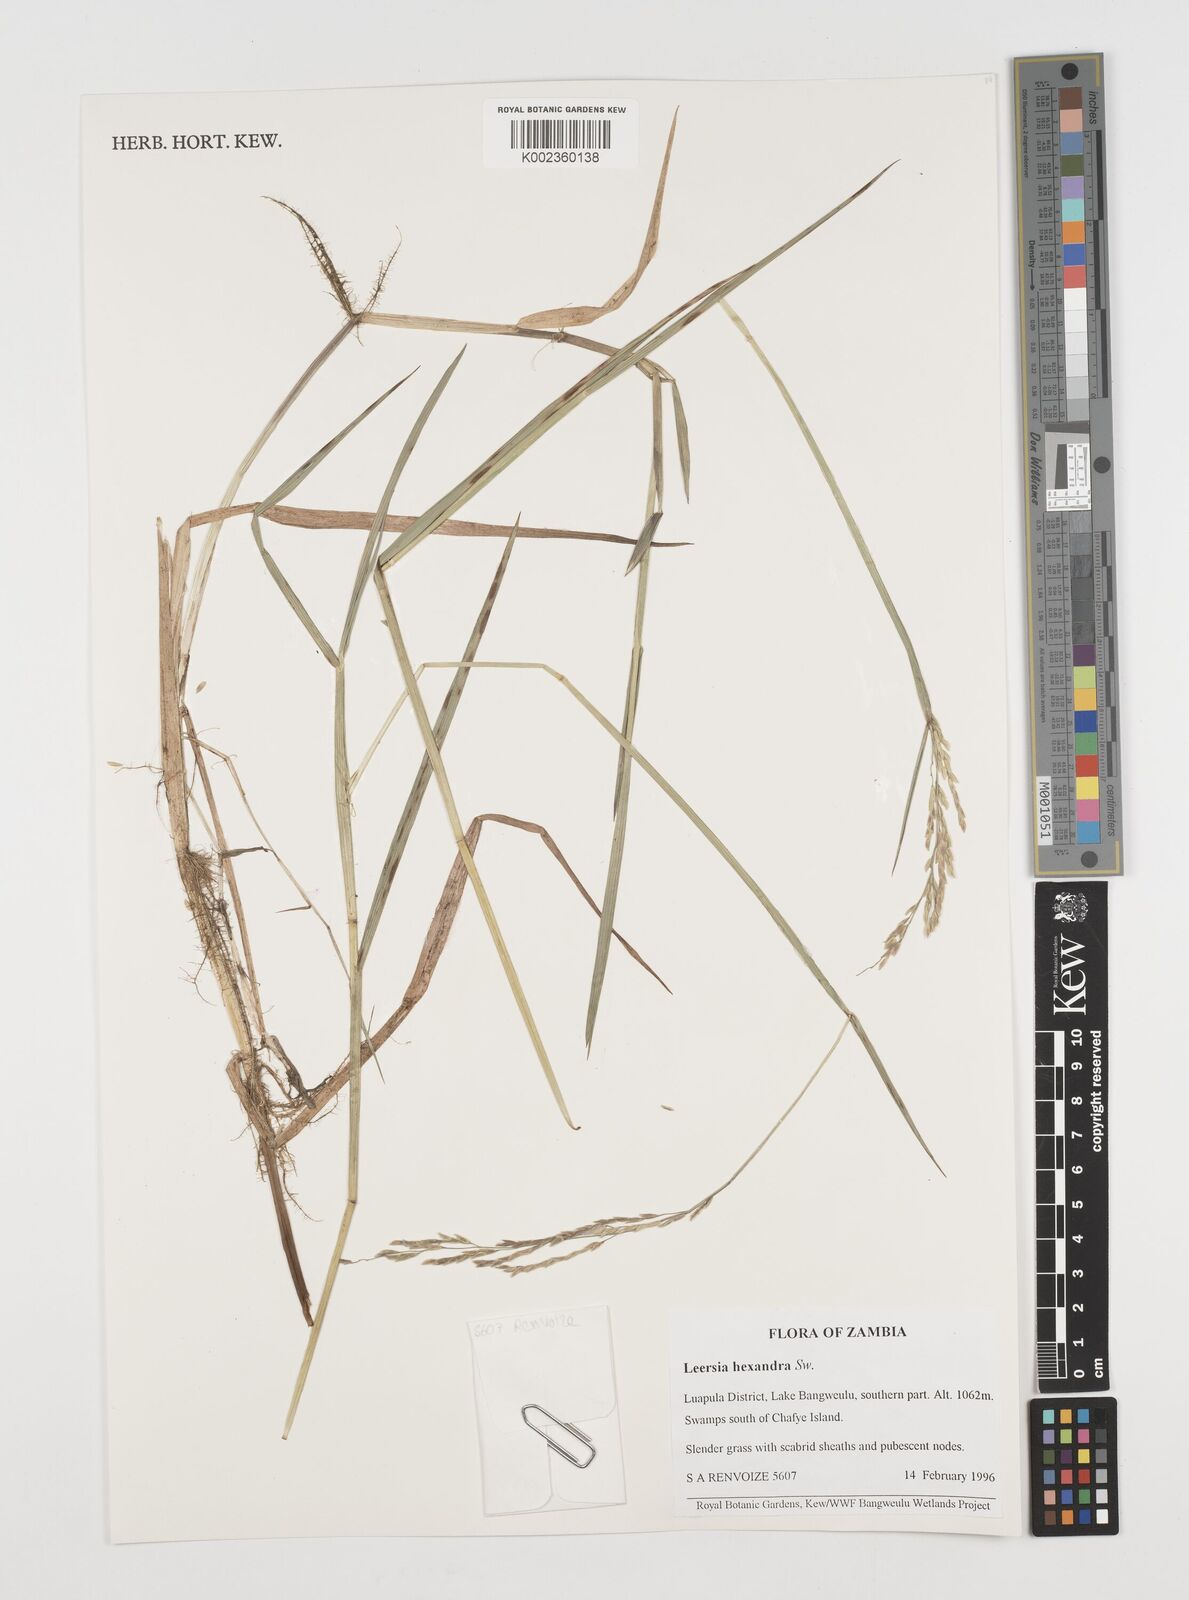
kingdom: Plantae
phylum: Tracheophyta
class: Liliopsida
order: Poales
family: Poaceae
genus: Leersia
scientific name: Leersia hexandra
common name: Southern cut grass
